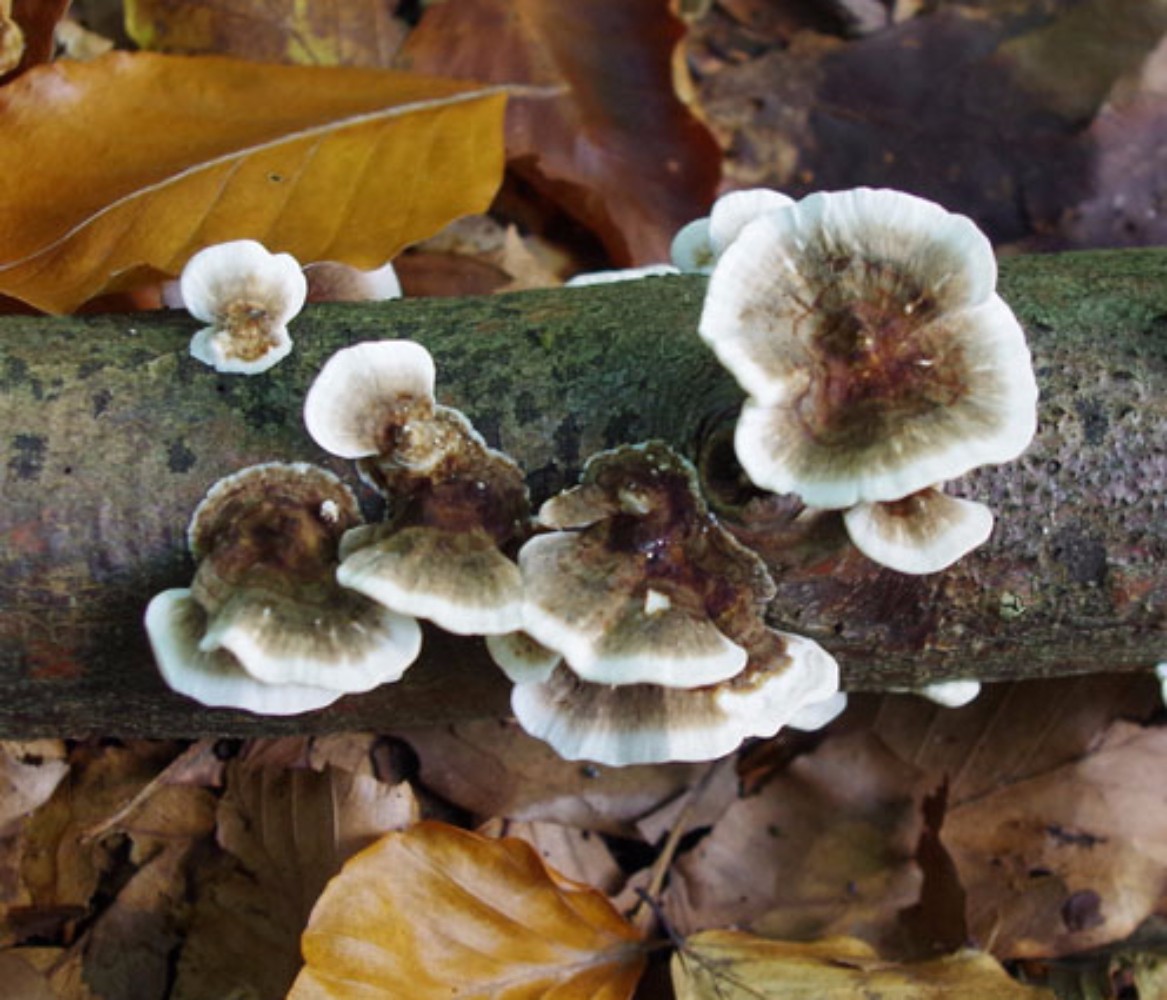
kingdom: Fungi
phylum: Basidiomycota
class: Agaricomycetes
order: Polyporales
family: Polyporaceae
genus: Trametes
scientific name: Trametes versicolor
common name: broget læderporesvamp
